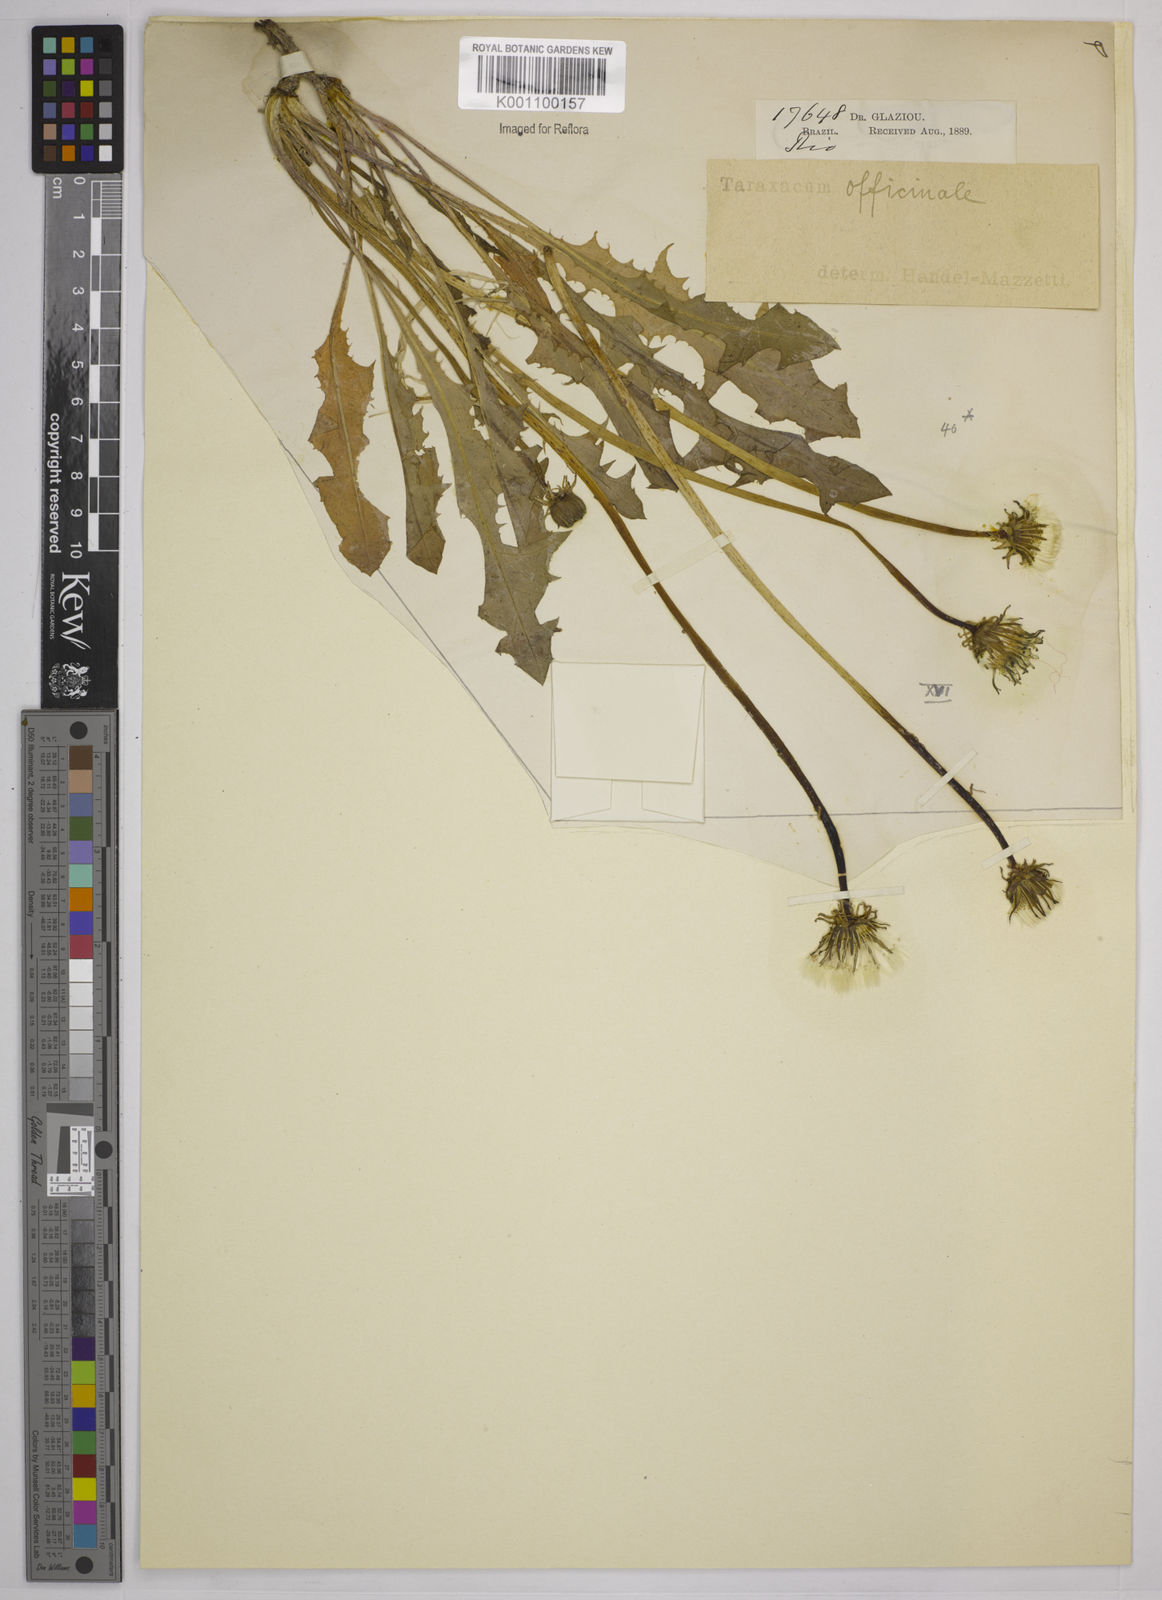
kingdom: Plantae
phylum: Tracheophyta
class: Magnoliopsida
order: Asterales
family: Asteraceae
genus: Taraxacum
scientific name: Taraxacum
